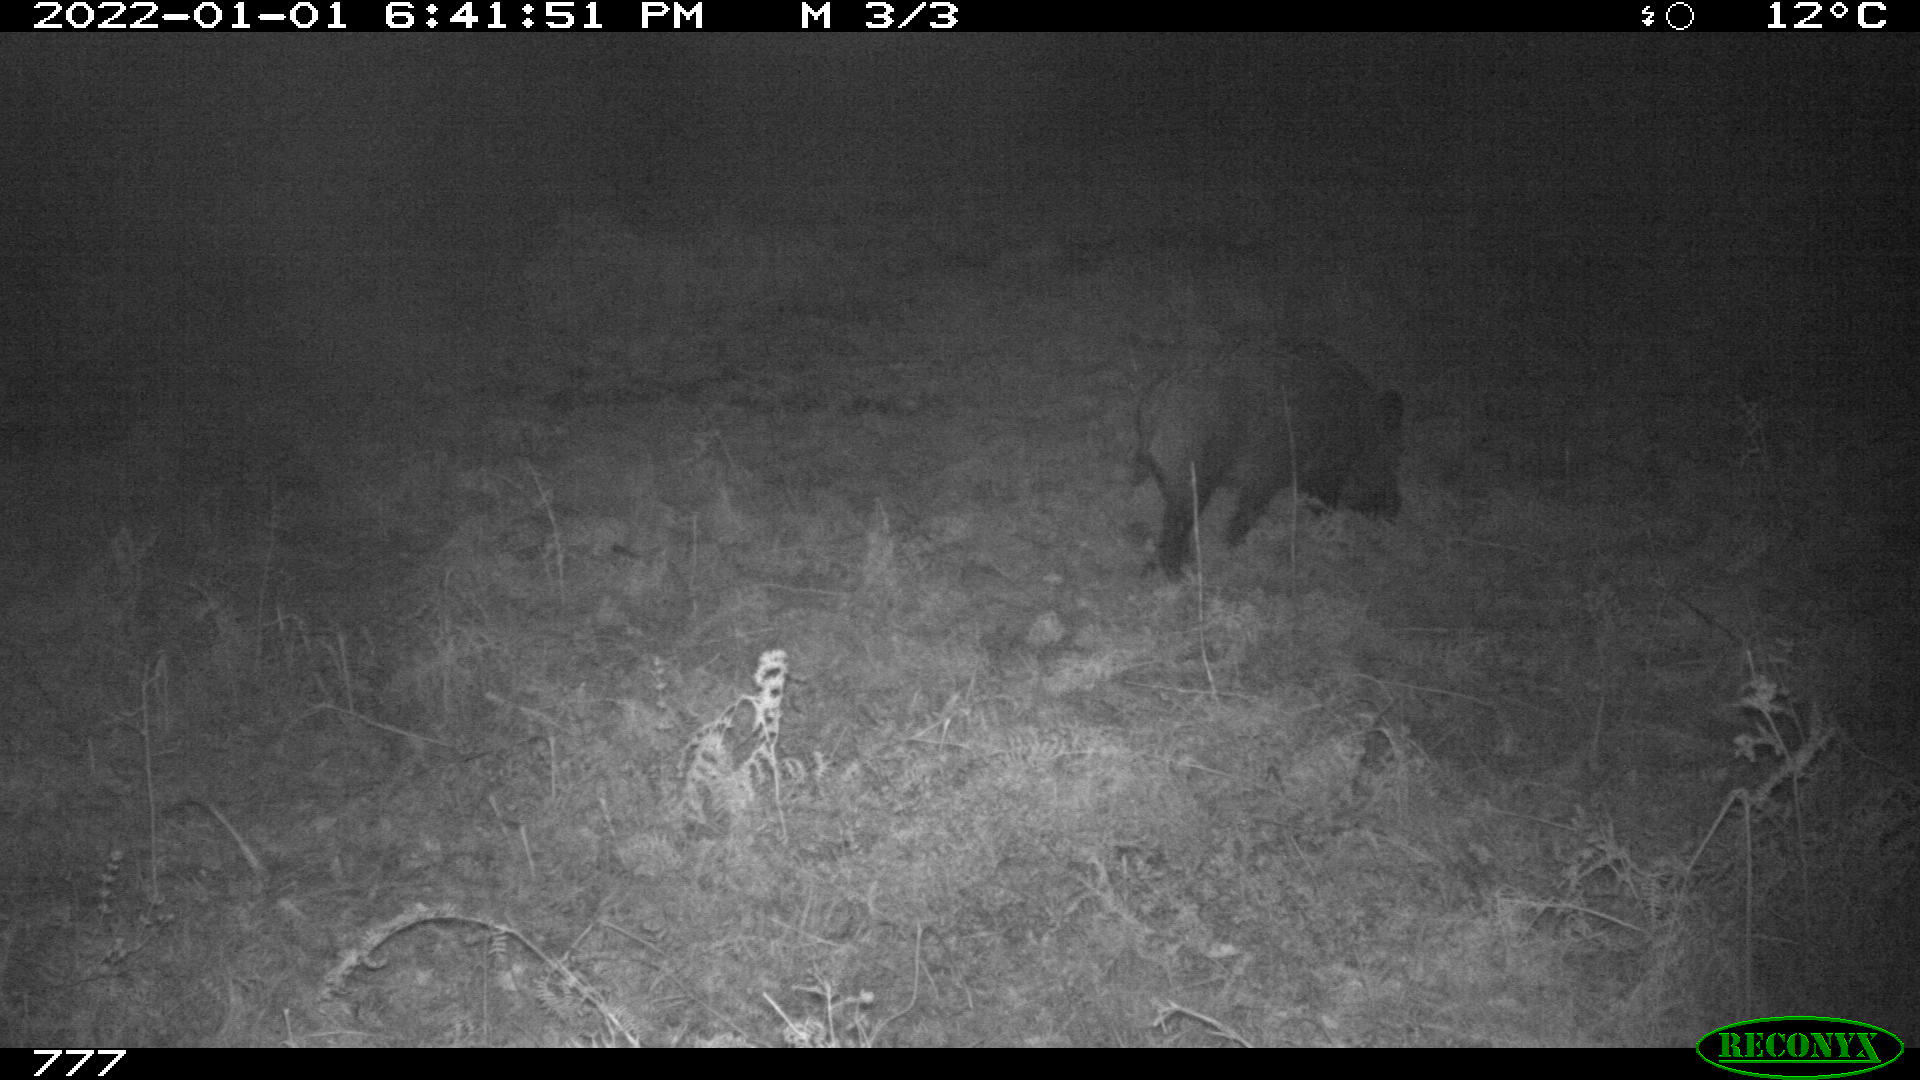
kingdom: Animalia
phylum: Chordata
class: Mammalia
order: Artiodactyla
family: Suidae
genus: Sus
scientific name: Sus scrofa
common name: Wild boar
